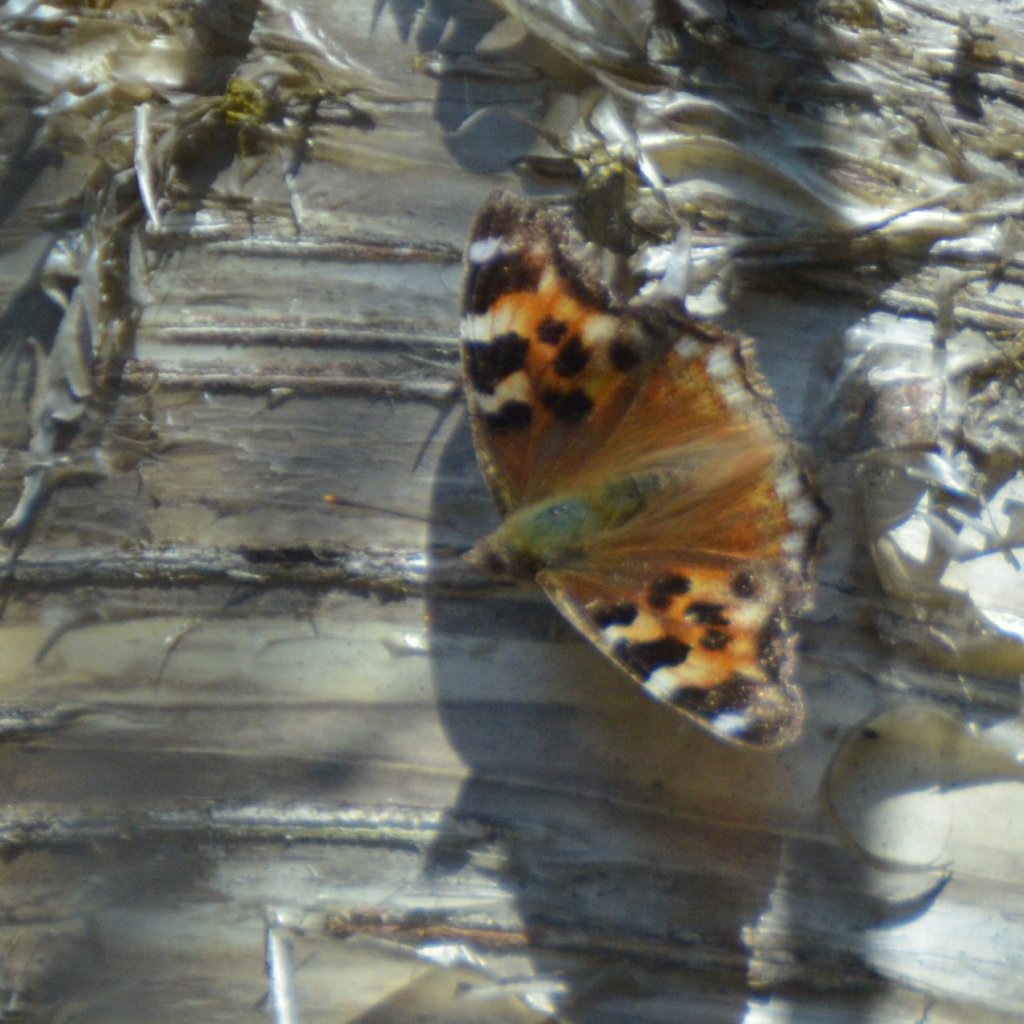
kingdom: Animalia
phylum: Arthropoda
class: Insecta
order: Lepidoptera
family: Nymphalidae
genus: Polygonia
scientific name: Polygonia vaualbum
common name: Compton Tortoiseshell
